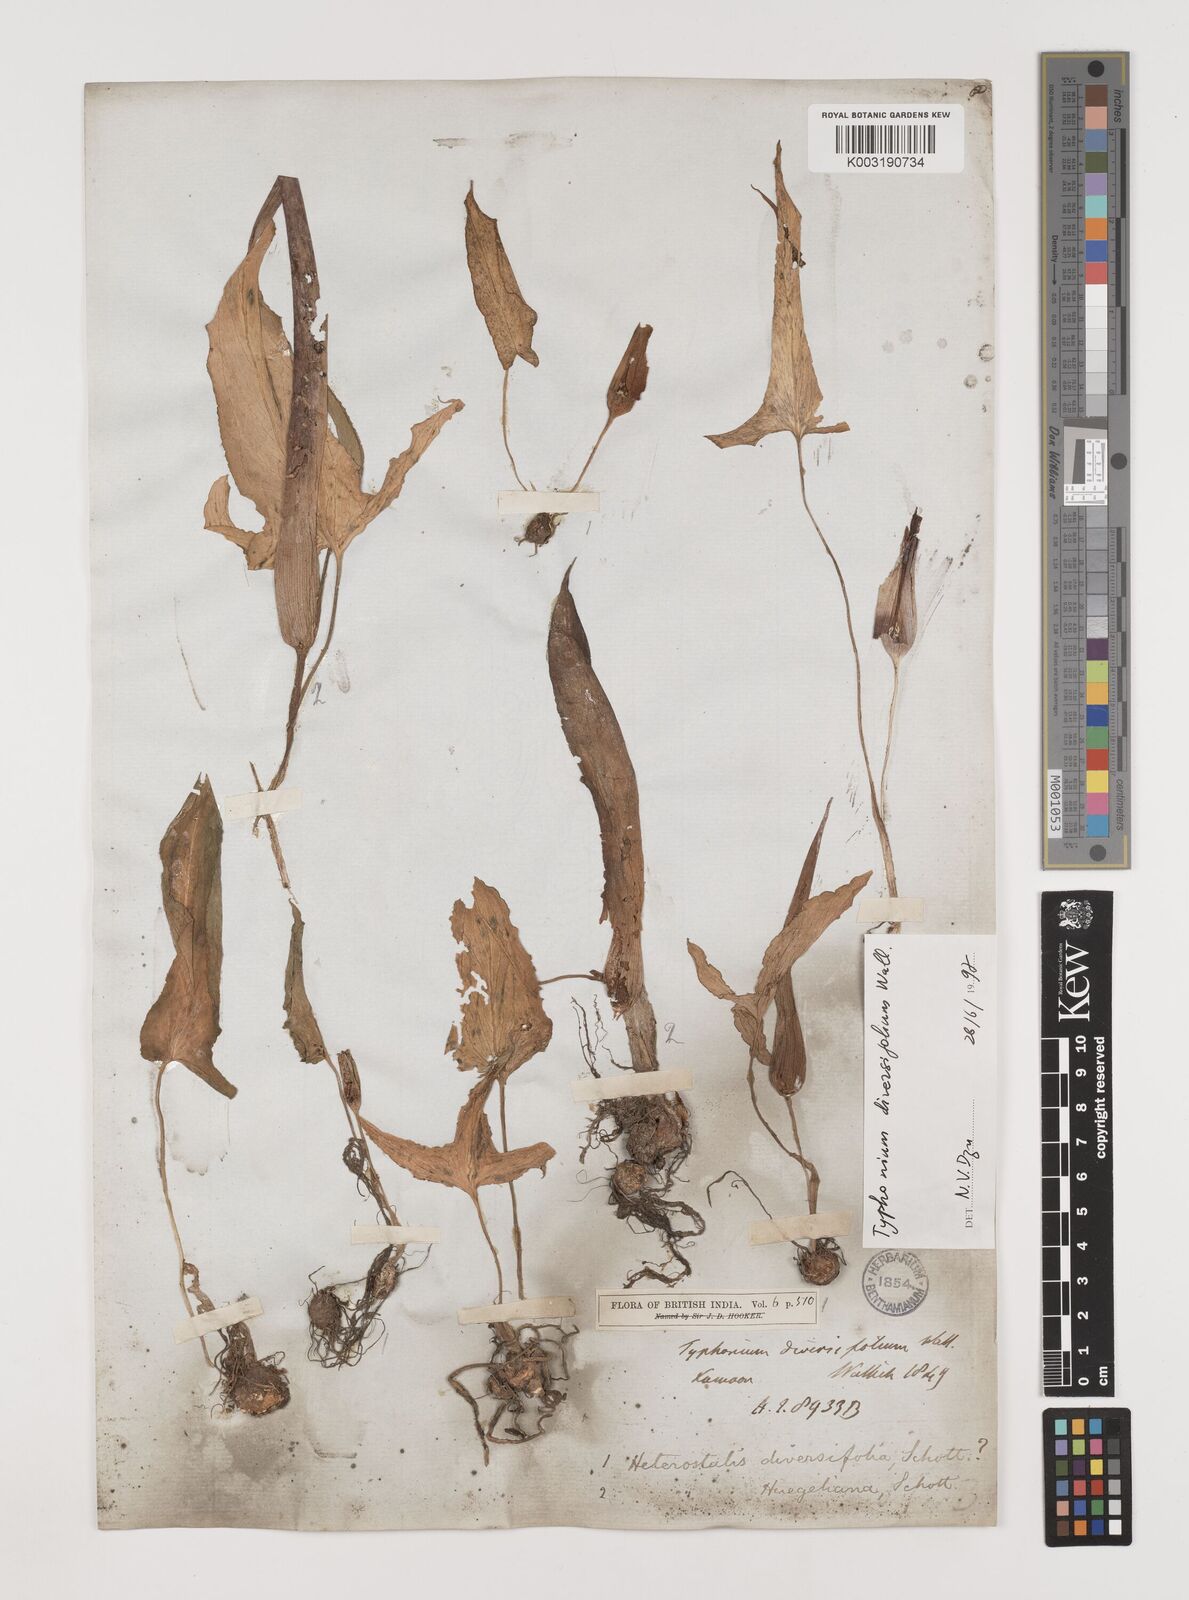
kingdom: Plantae
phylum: Tracheophyta
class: Liliopsida
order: Alismatales
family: Araceae
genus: Sauromatum
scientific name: Sauromatum diversifolium
